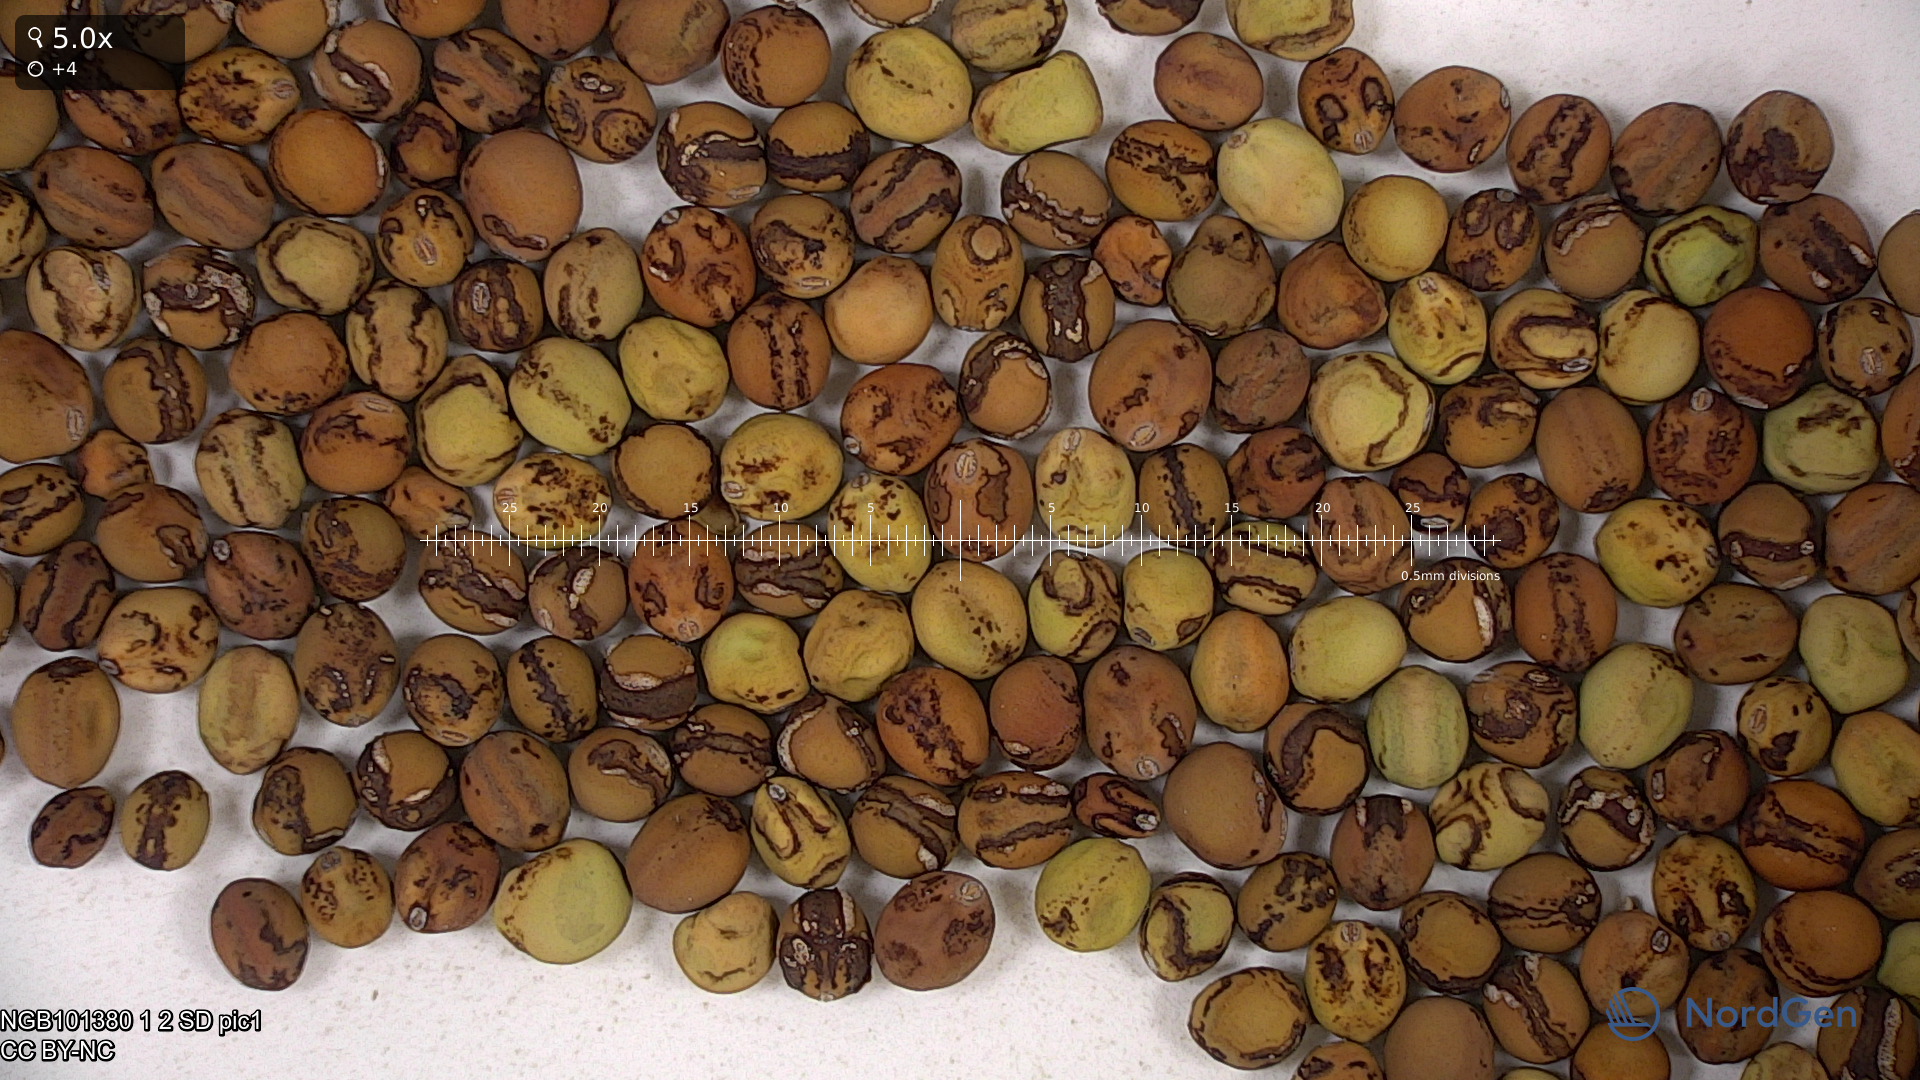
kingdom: Plantae
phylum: Tracheophyta
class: Magnoliopsida
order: Fabales
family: Fabaceae
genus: Lathyrus
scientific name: Lathyrus oleraceus
